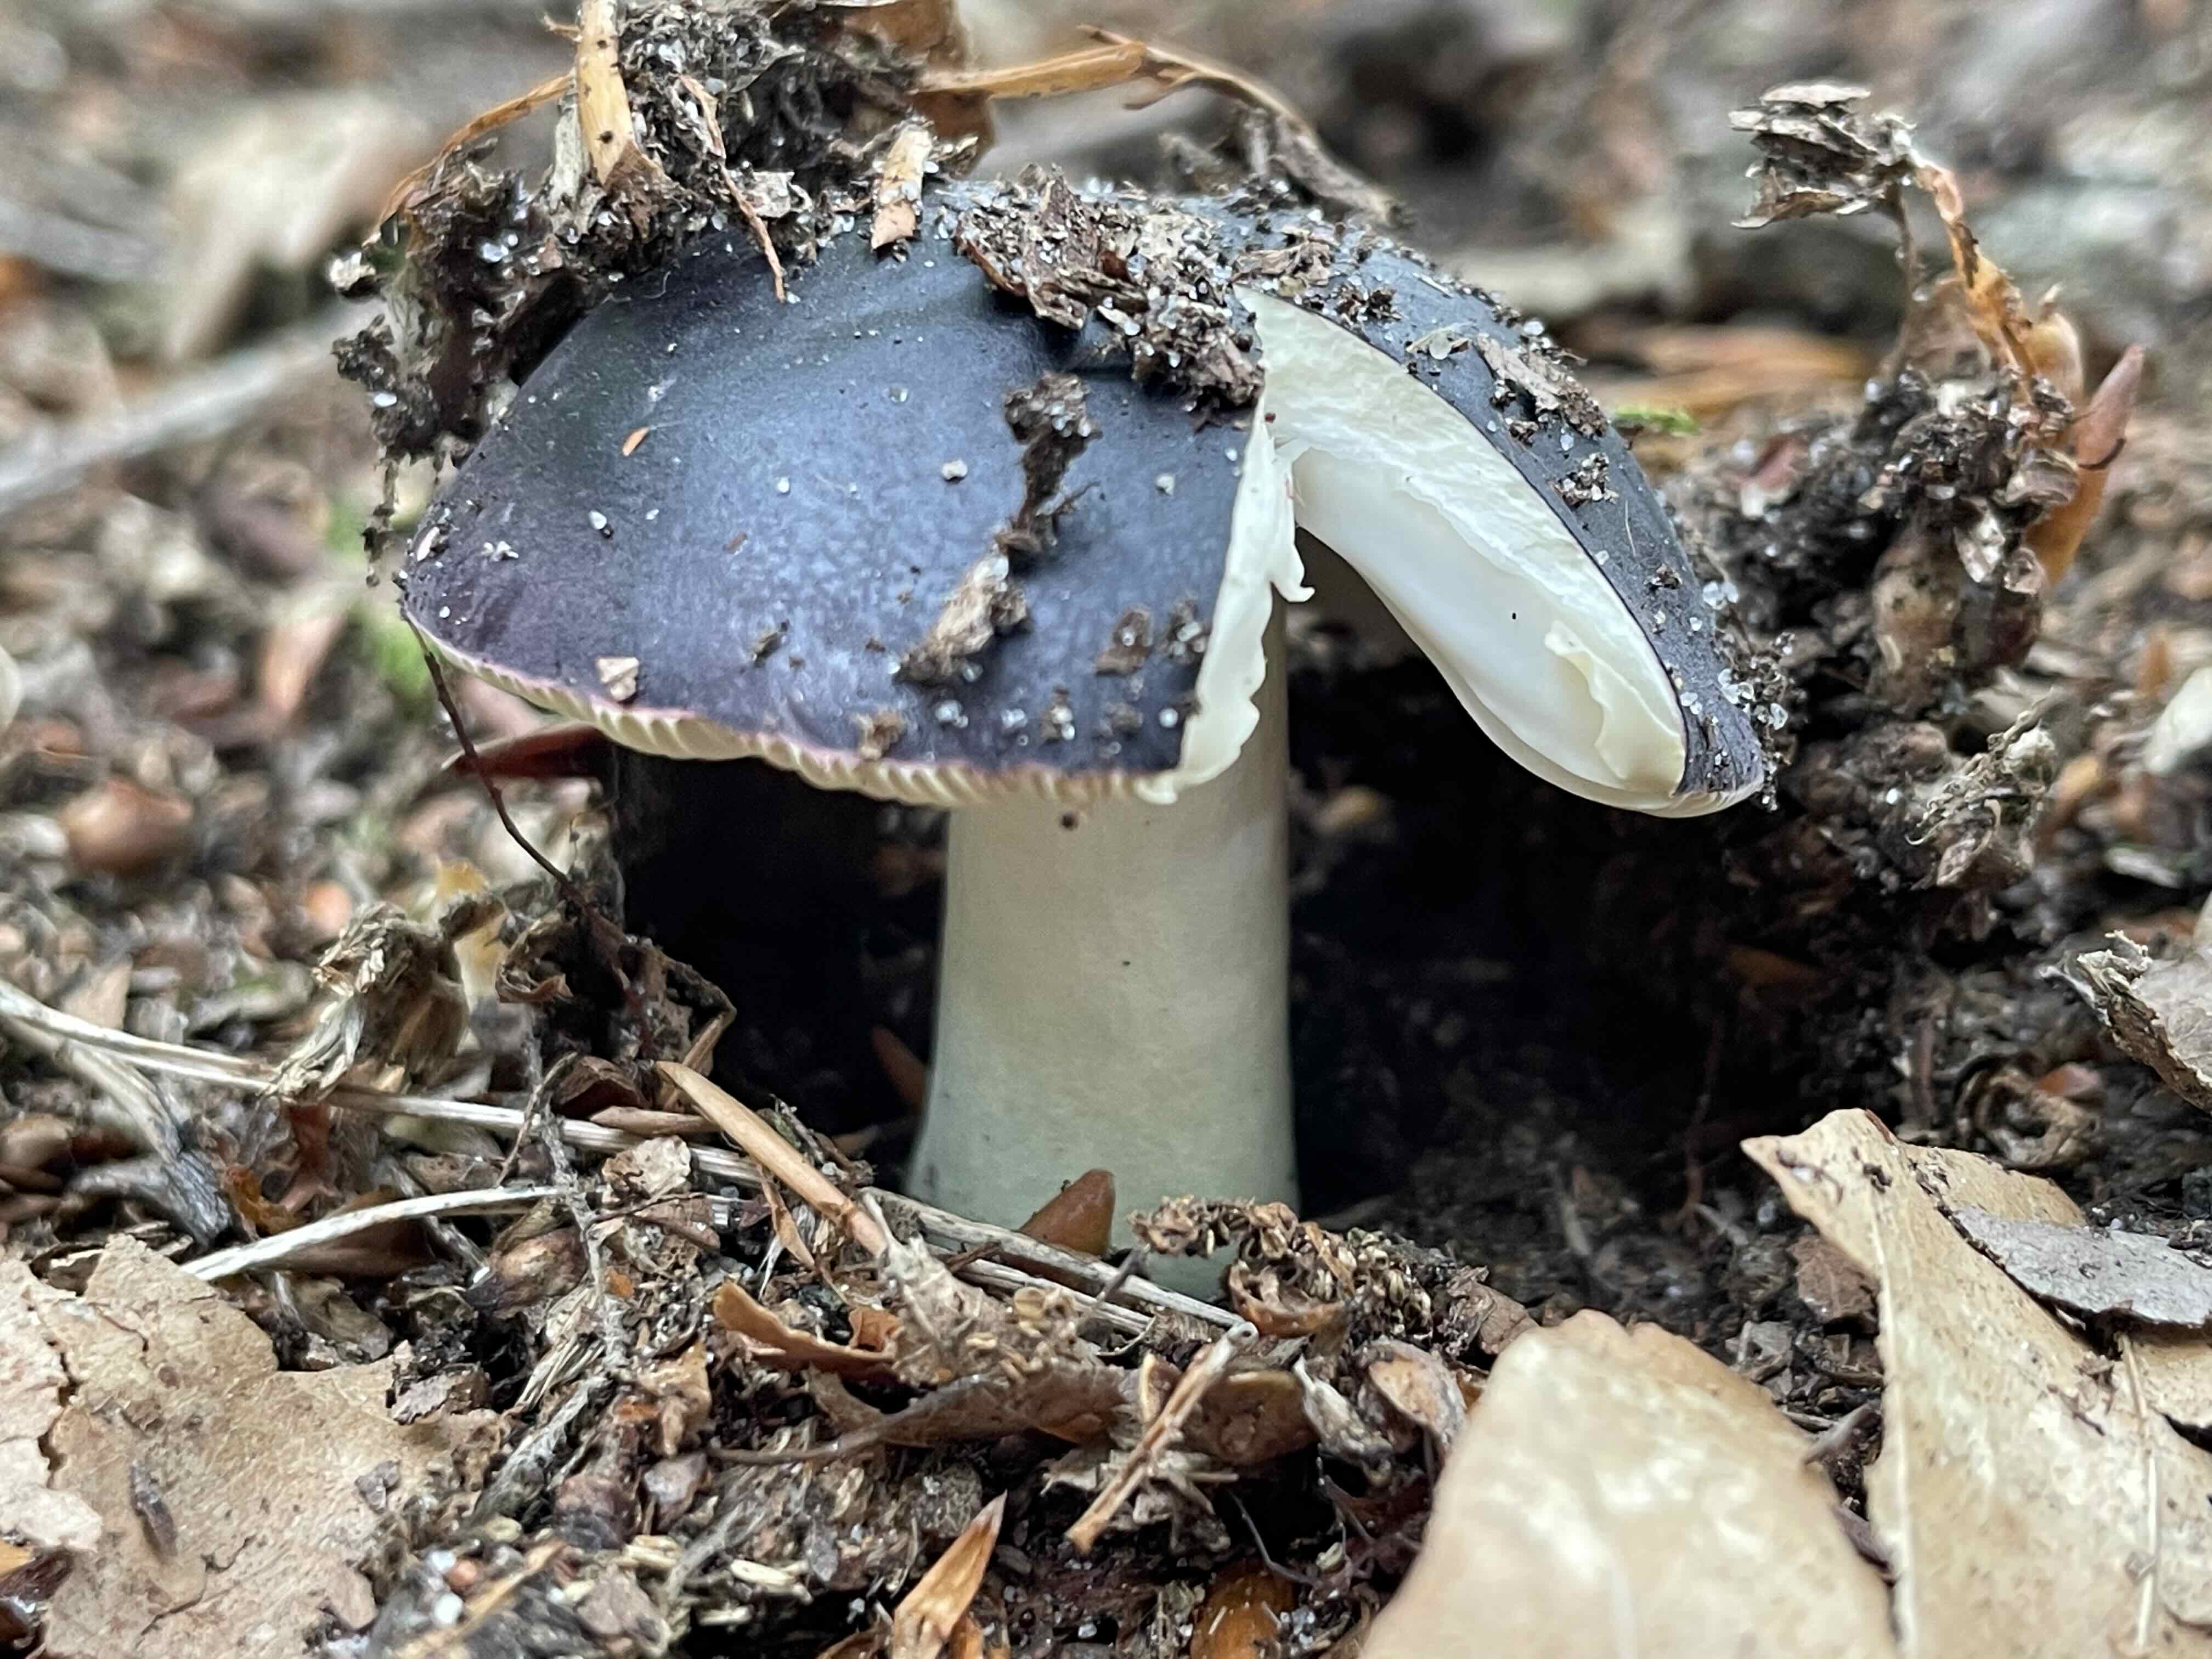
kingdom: Fungi
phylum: Basidiomycota
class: Agaricomycetes
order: Russulales
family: Russulaceae
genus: Russula
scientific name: Russula atropurpurea
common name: purpurbroget skørhat
